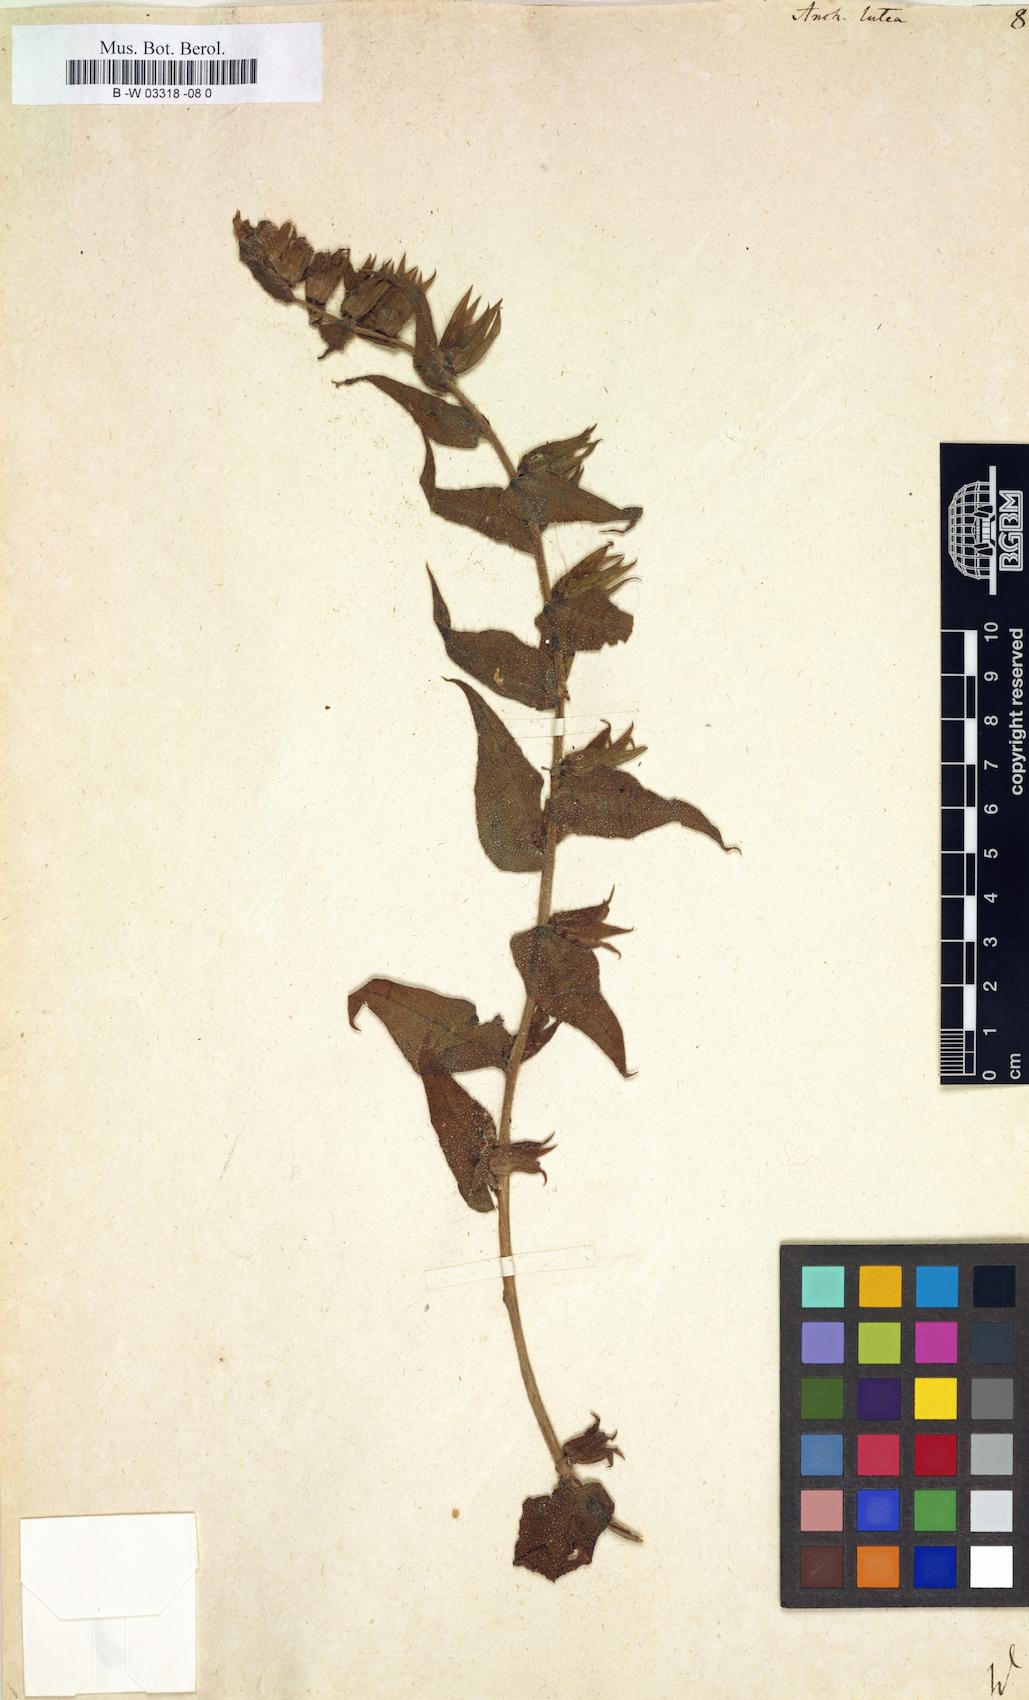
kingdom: Plantae
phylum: Tracheophyta
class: Magnoliopsida
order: Boraginales
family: Boraginaceae
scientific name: Boraginaceae
